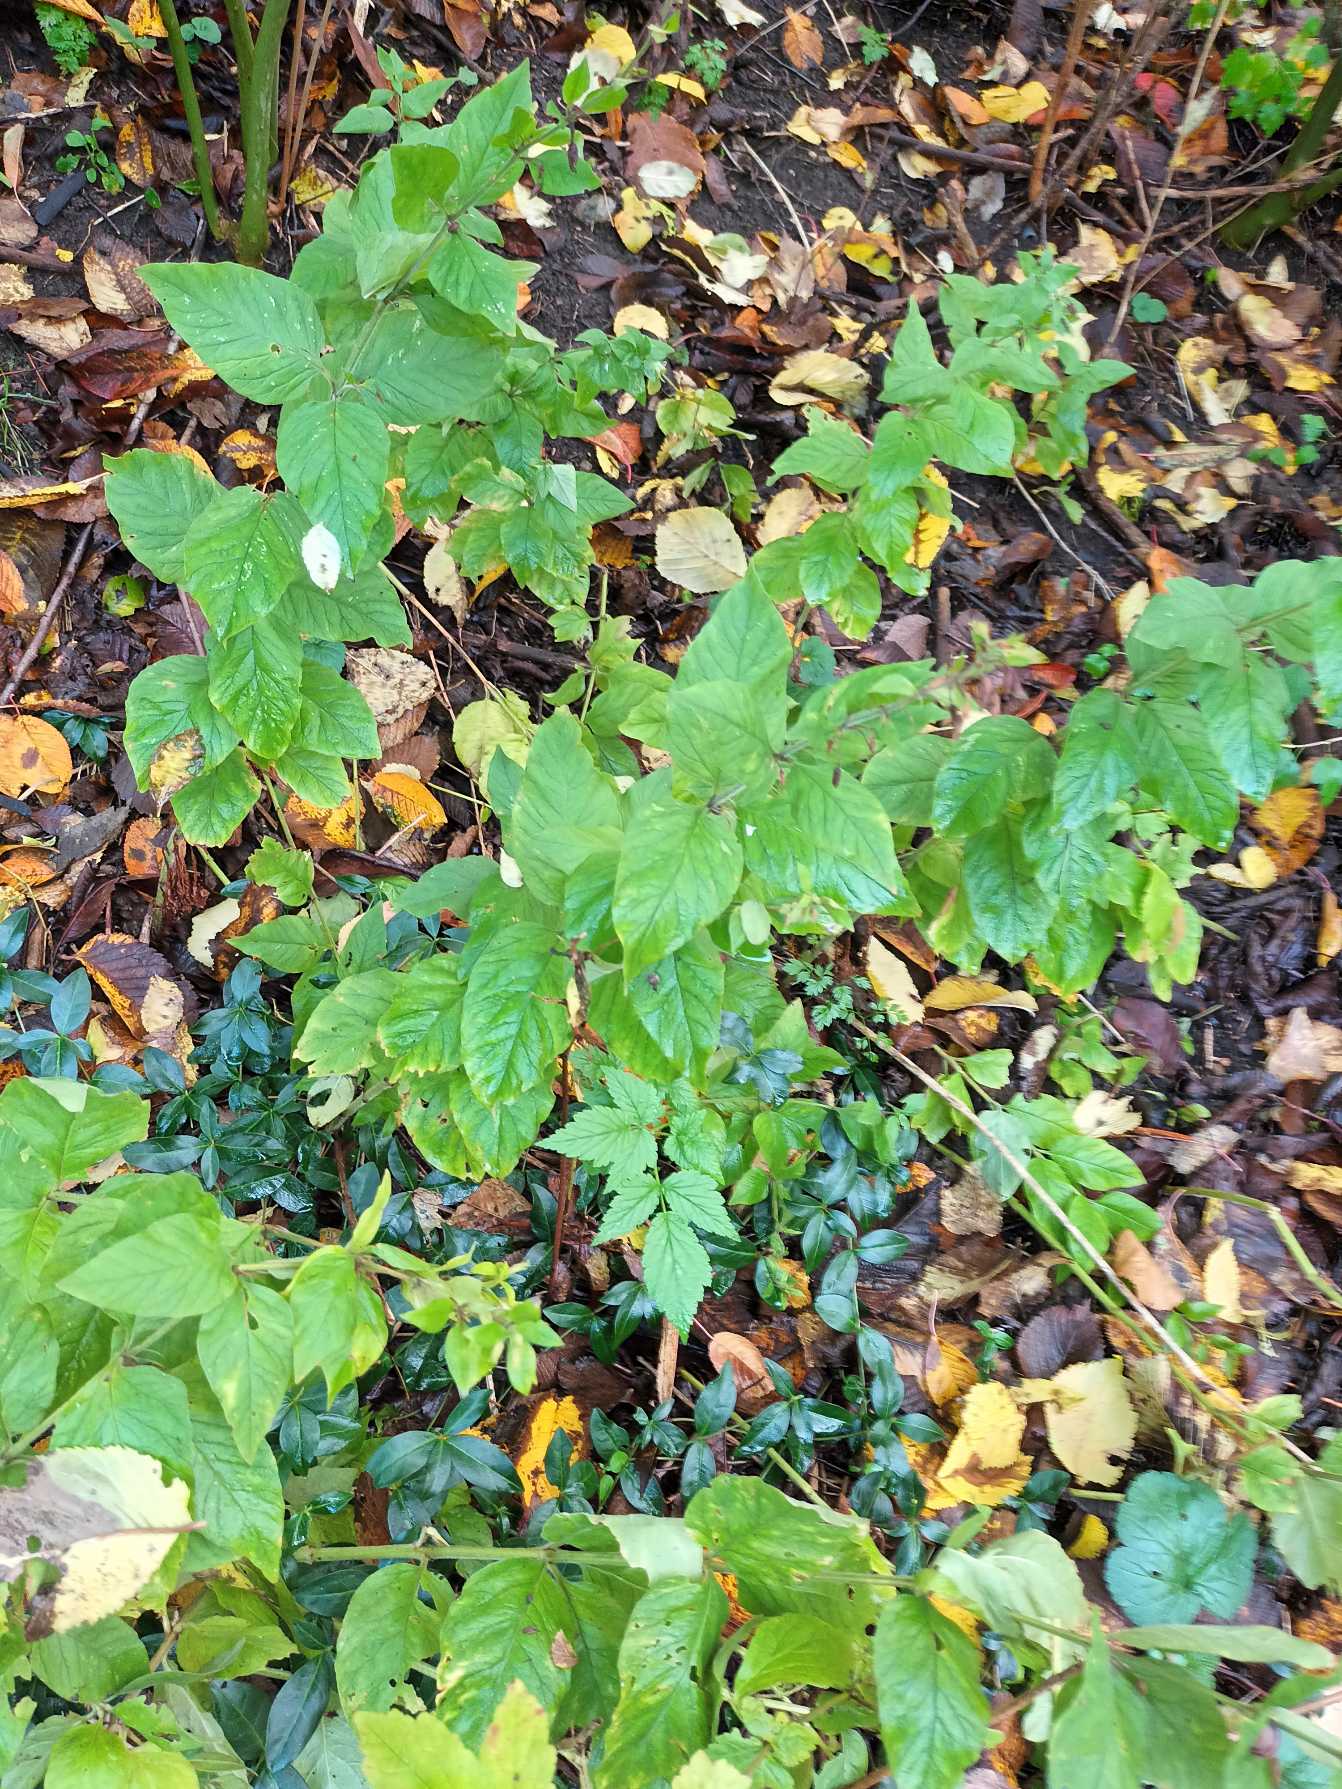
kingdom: Plantae
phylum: Tracheophyta
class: Magnoliopsida
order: Ericales
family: Primulaceae
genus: Lysimachia
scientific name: Lysimachia punctata
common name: Prikbladet fredløs
